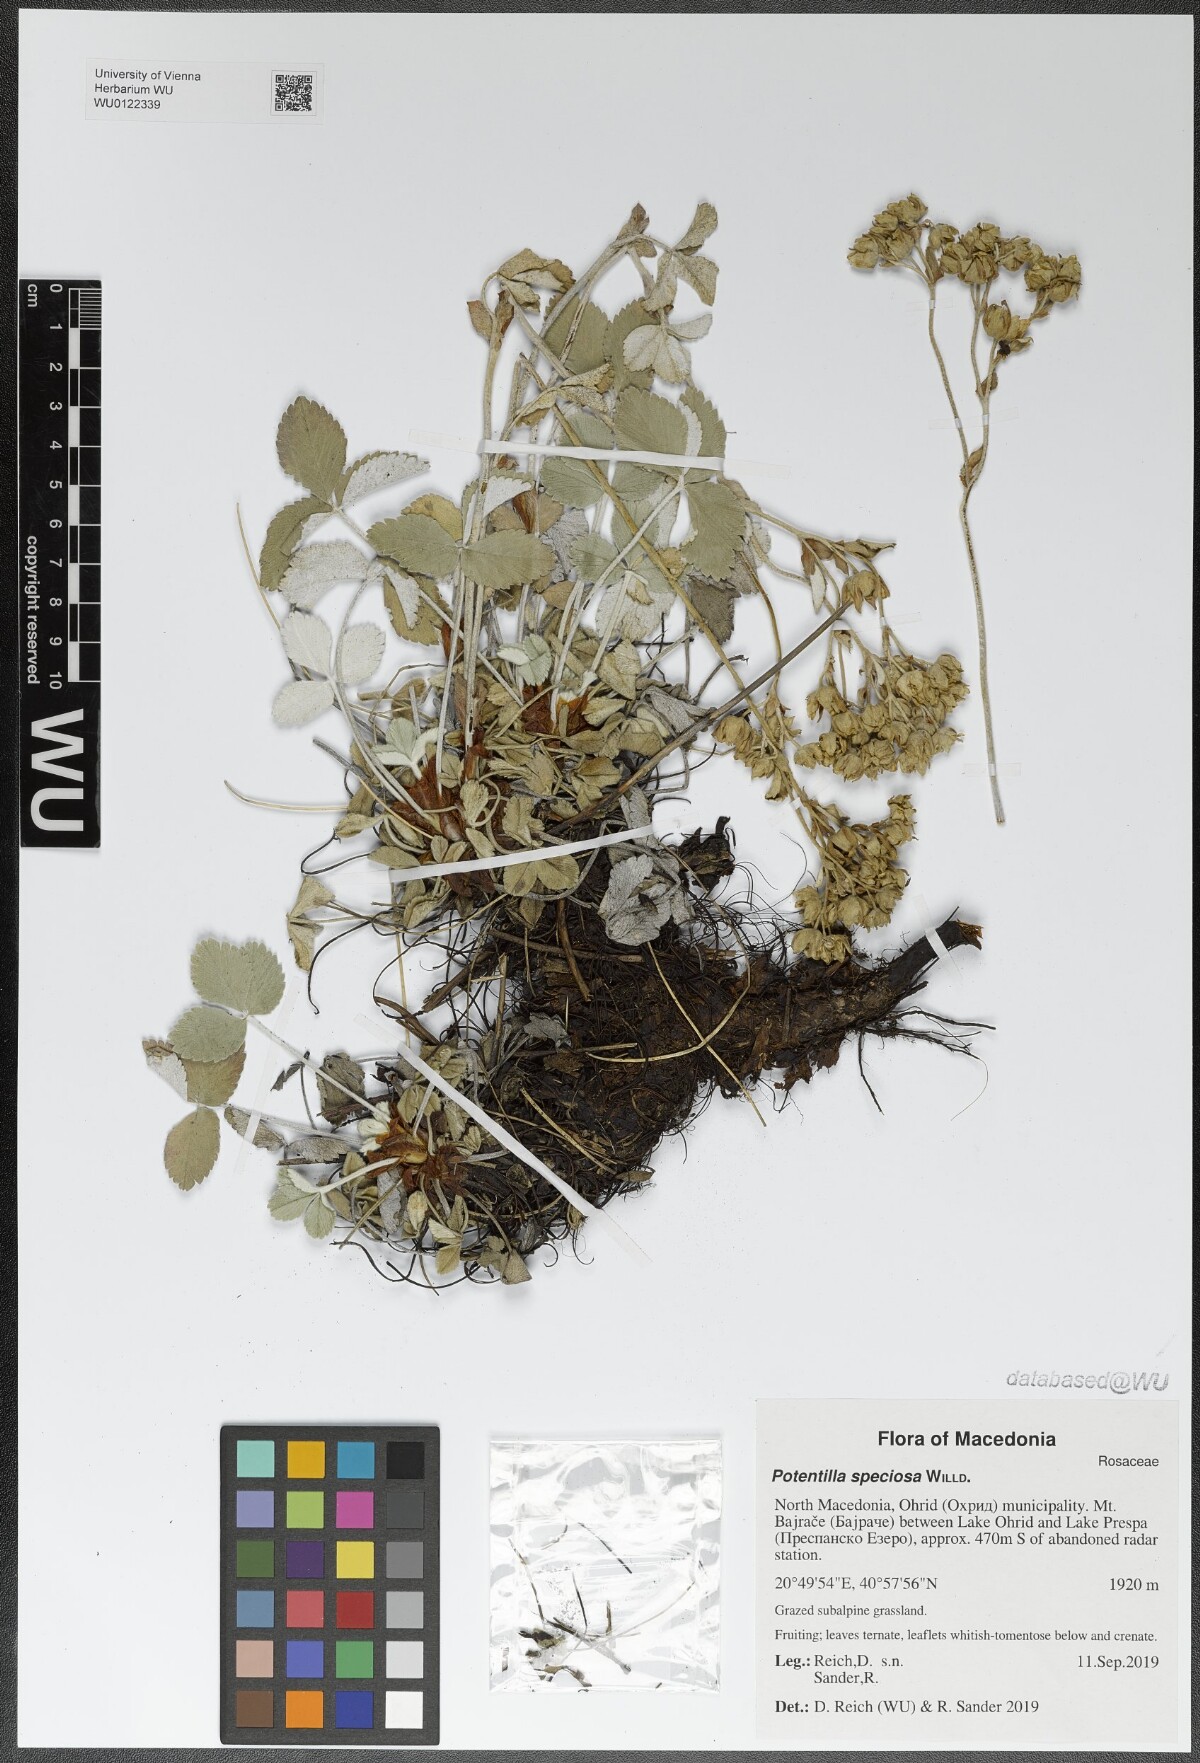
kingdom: Plantae
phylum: Tracheophyta
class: Magnoliopsida
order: Rosales
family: Rosaceae
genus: Potentilla
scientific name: Potentilla speciosa
